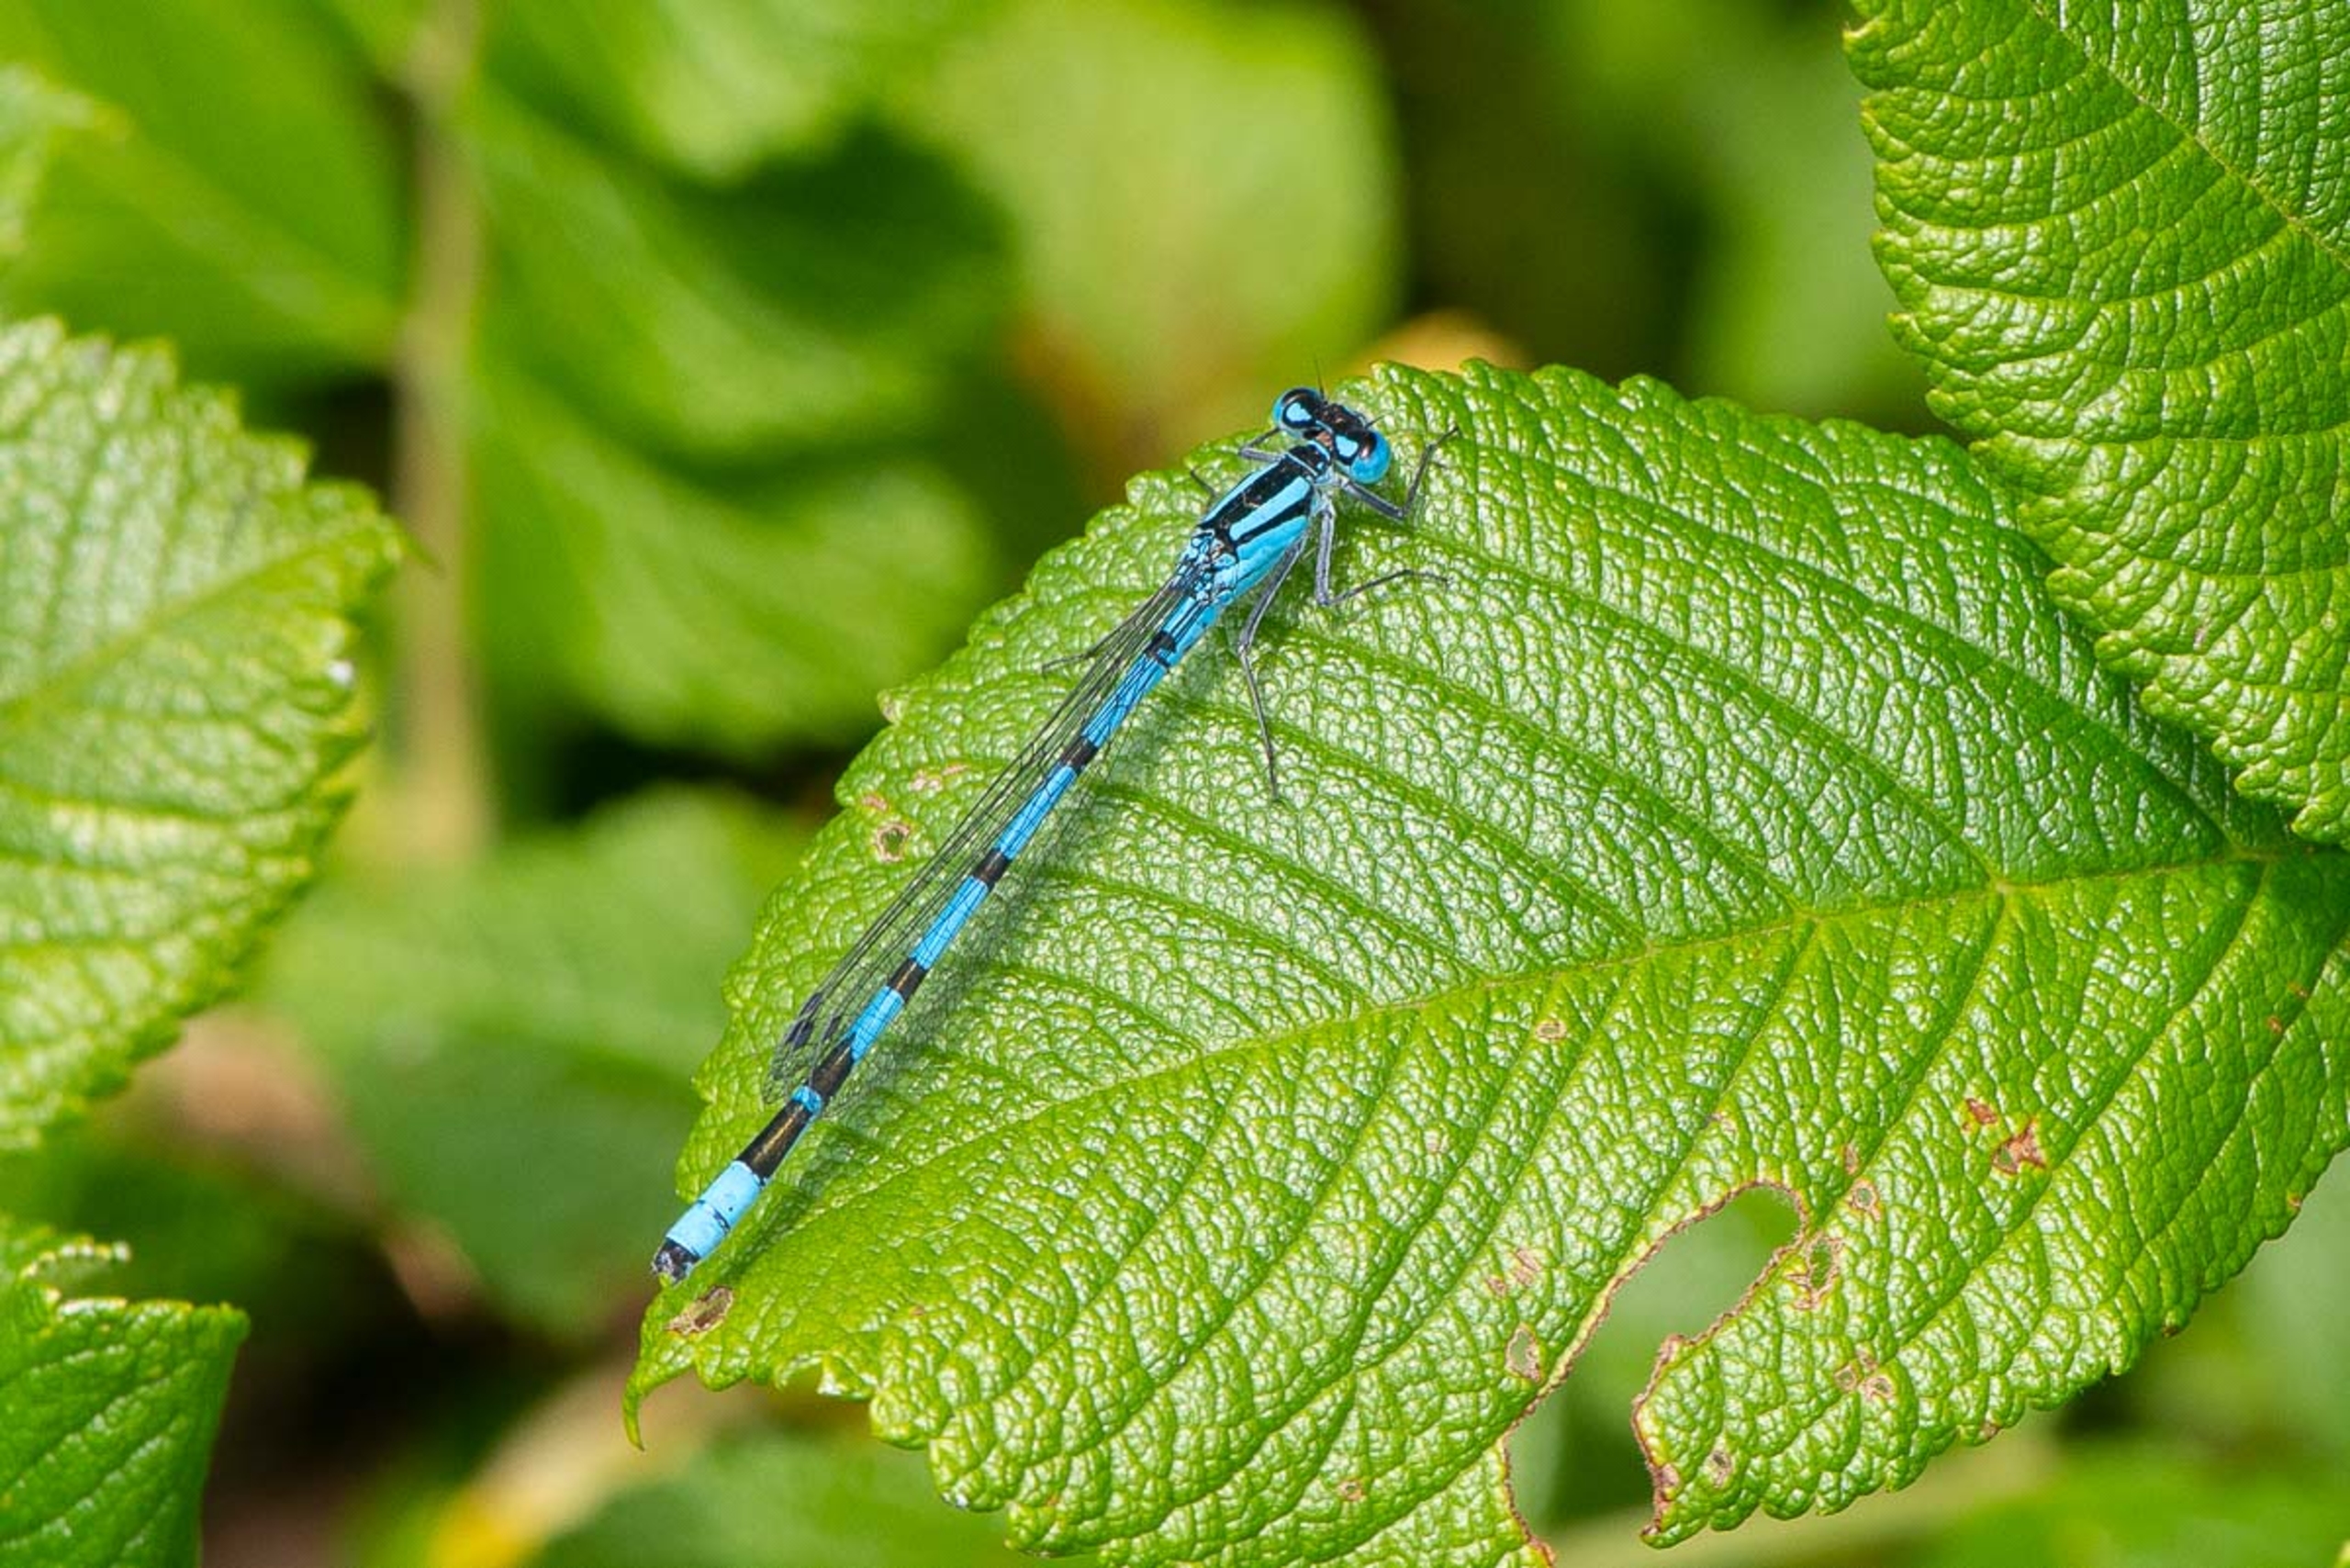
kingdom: Animalia
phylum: Arthropoda
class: Insecta
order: Odonata
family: Coenagrionidae
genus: Enallagma
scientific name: Enallagma cyathigerum
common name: Almindelig vandnymfe
